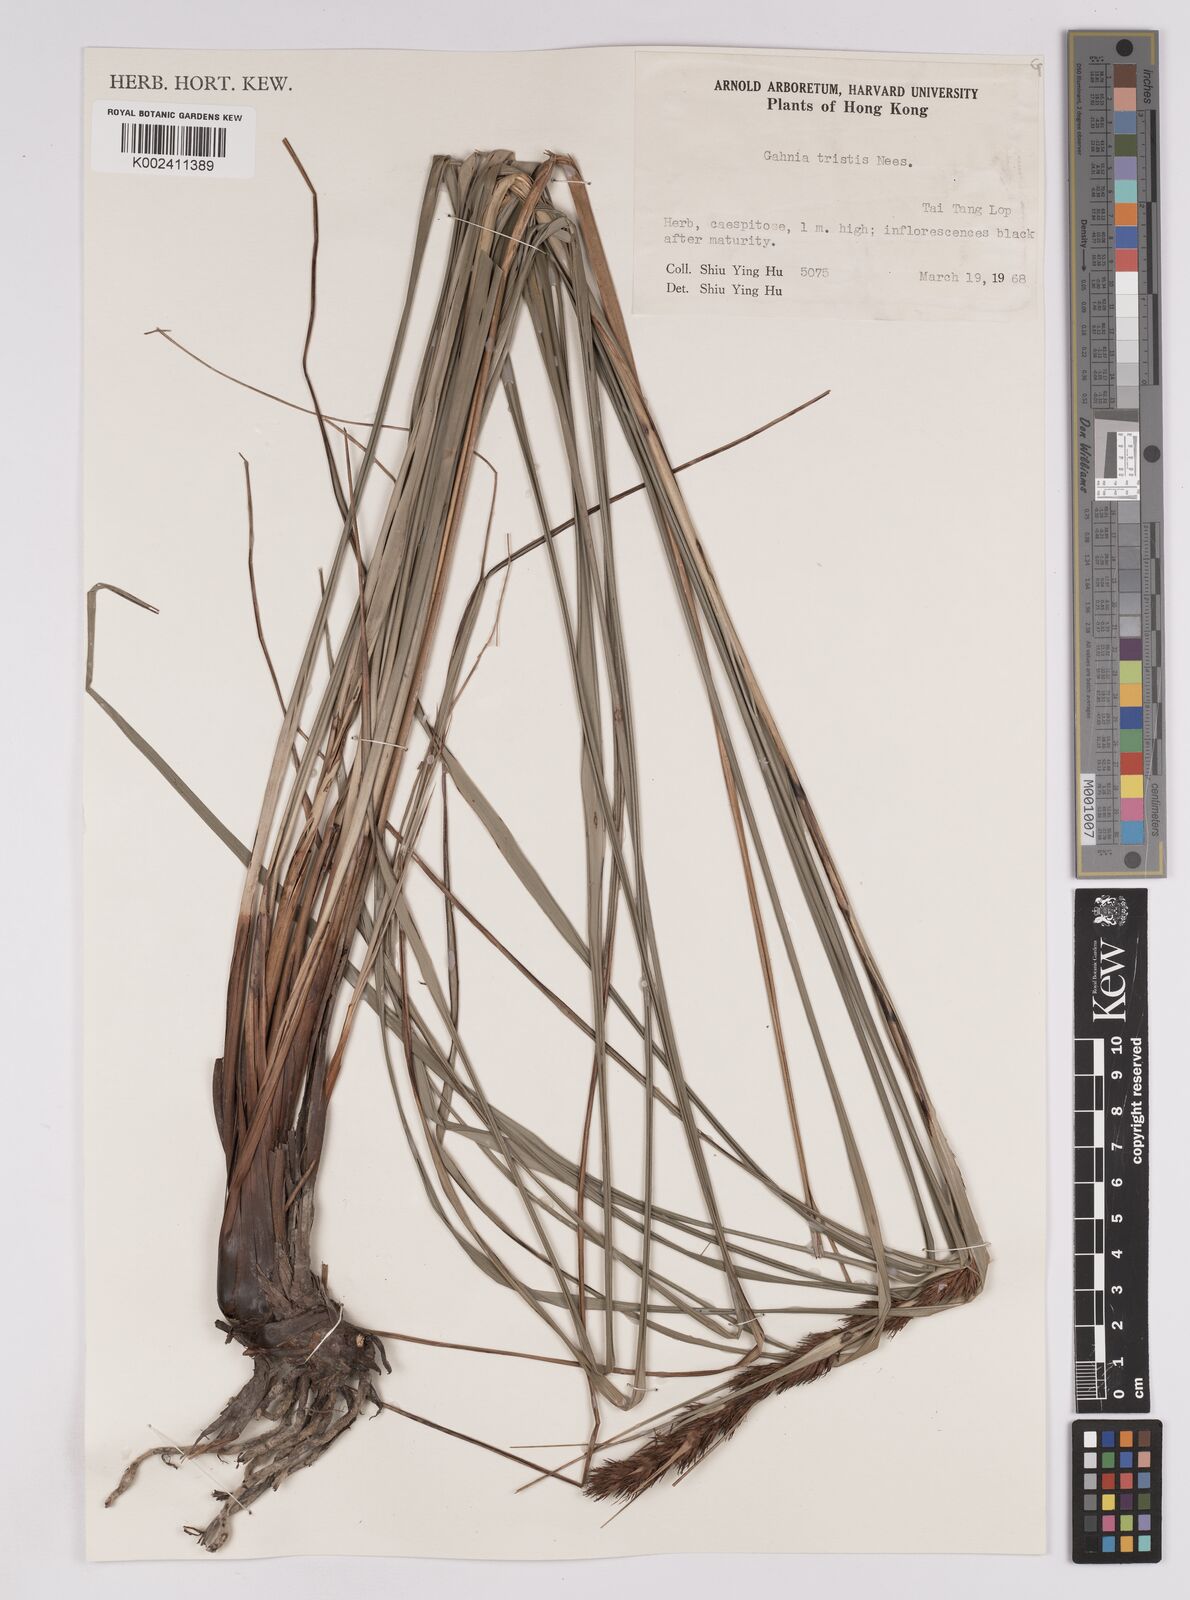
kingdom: Plantae
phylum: Tracheophyta
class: Liliopsida
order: Poales
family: Cyperaceae
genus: Gahnia
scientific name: Gahnia tristis
